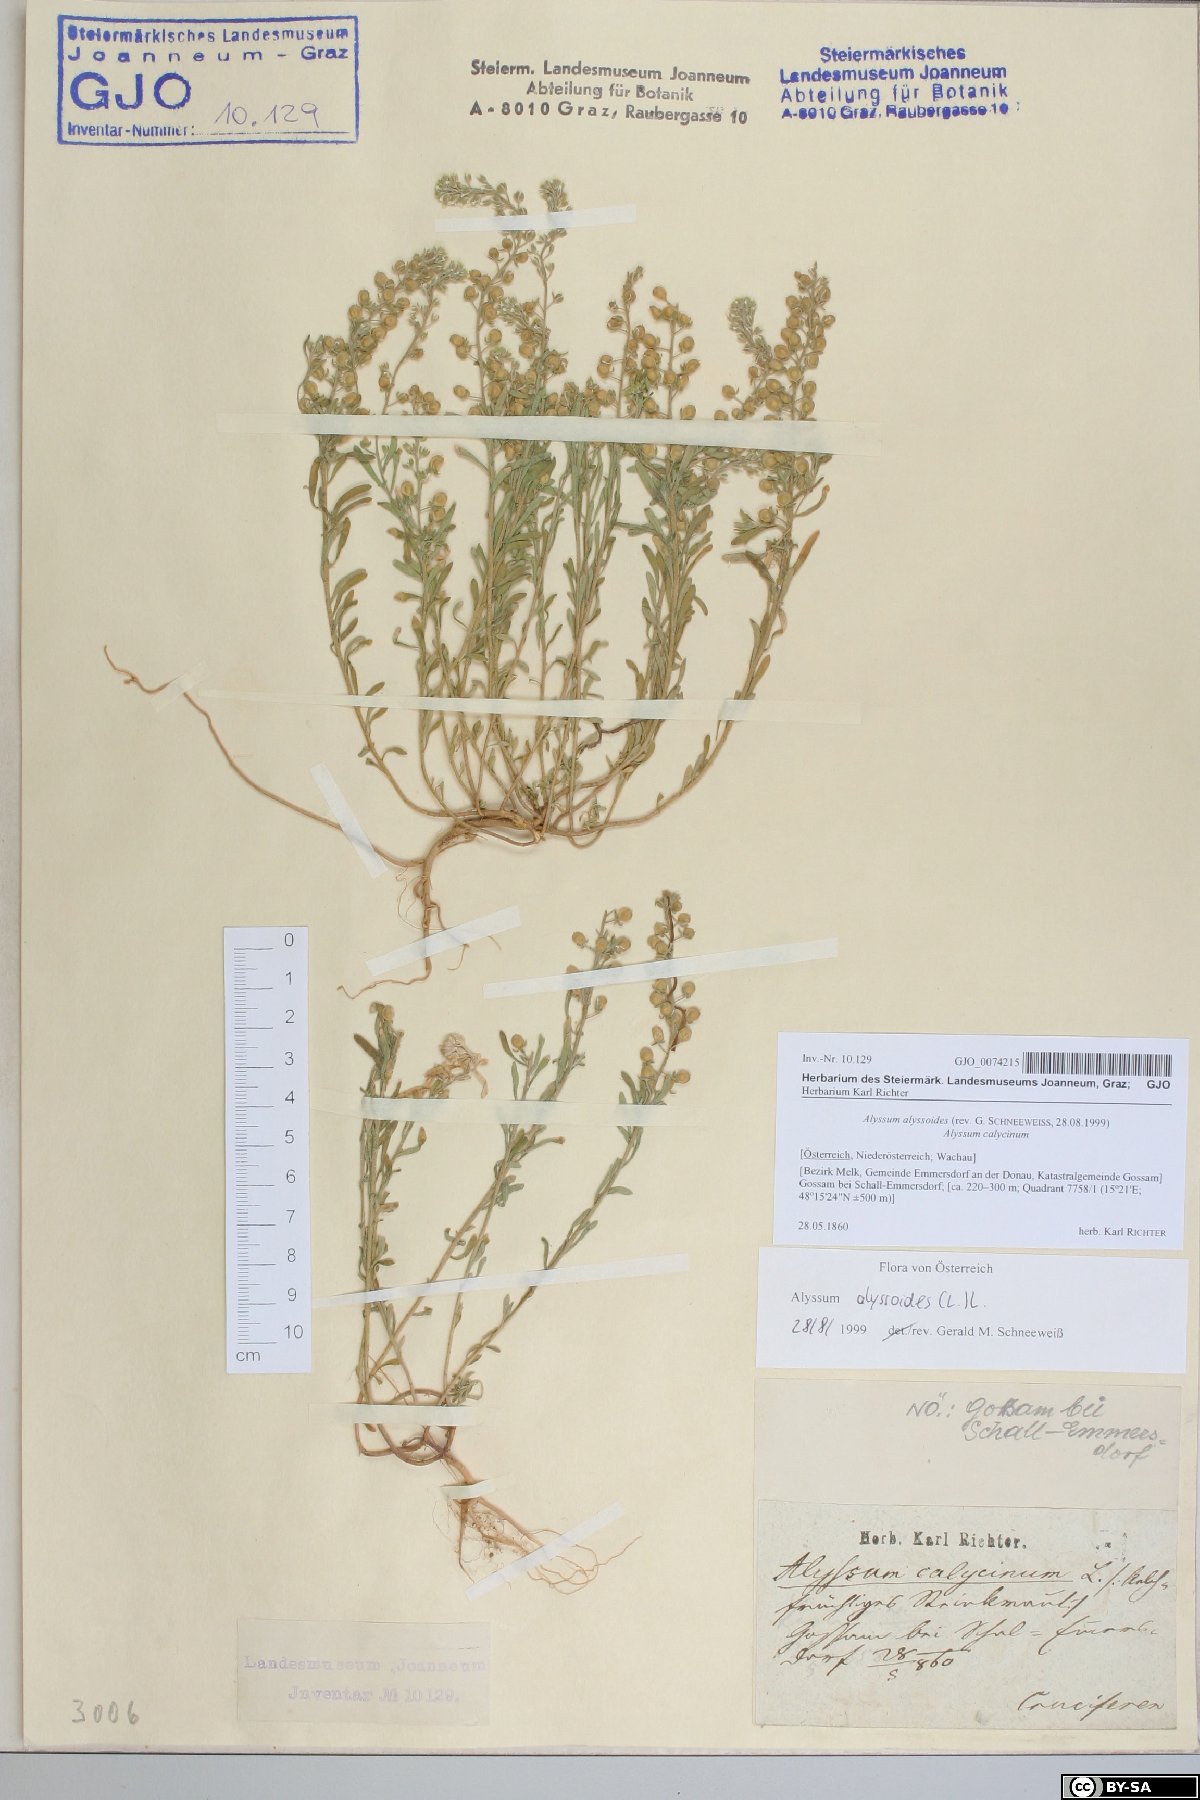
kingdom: Plantae
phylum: Tracheophyta
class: Magnoliopsida
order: Brassicales
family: Brassicaceae
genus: Alyssum
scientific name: Alyssum alyssoides
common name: Small alison
